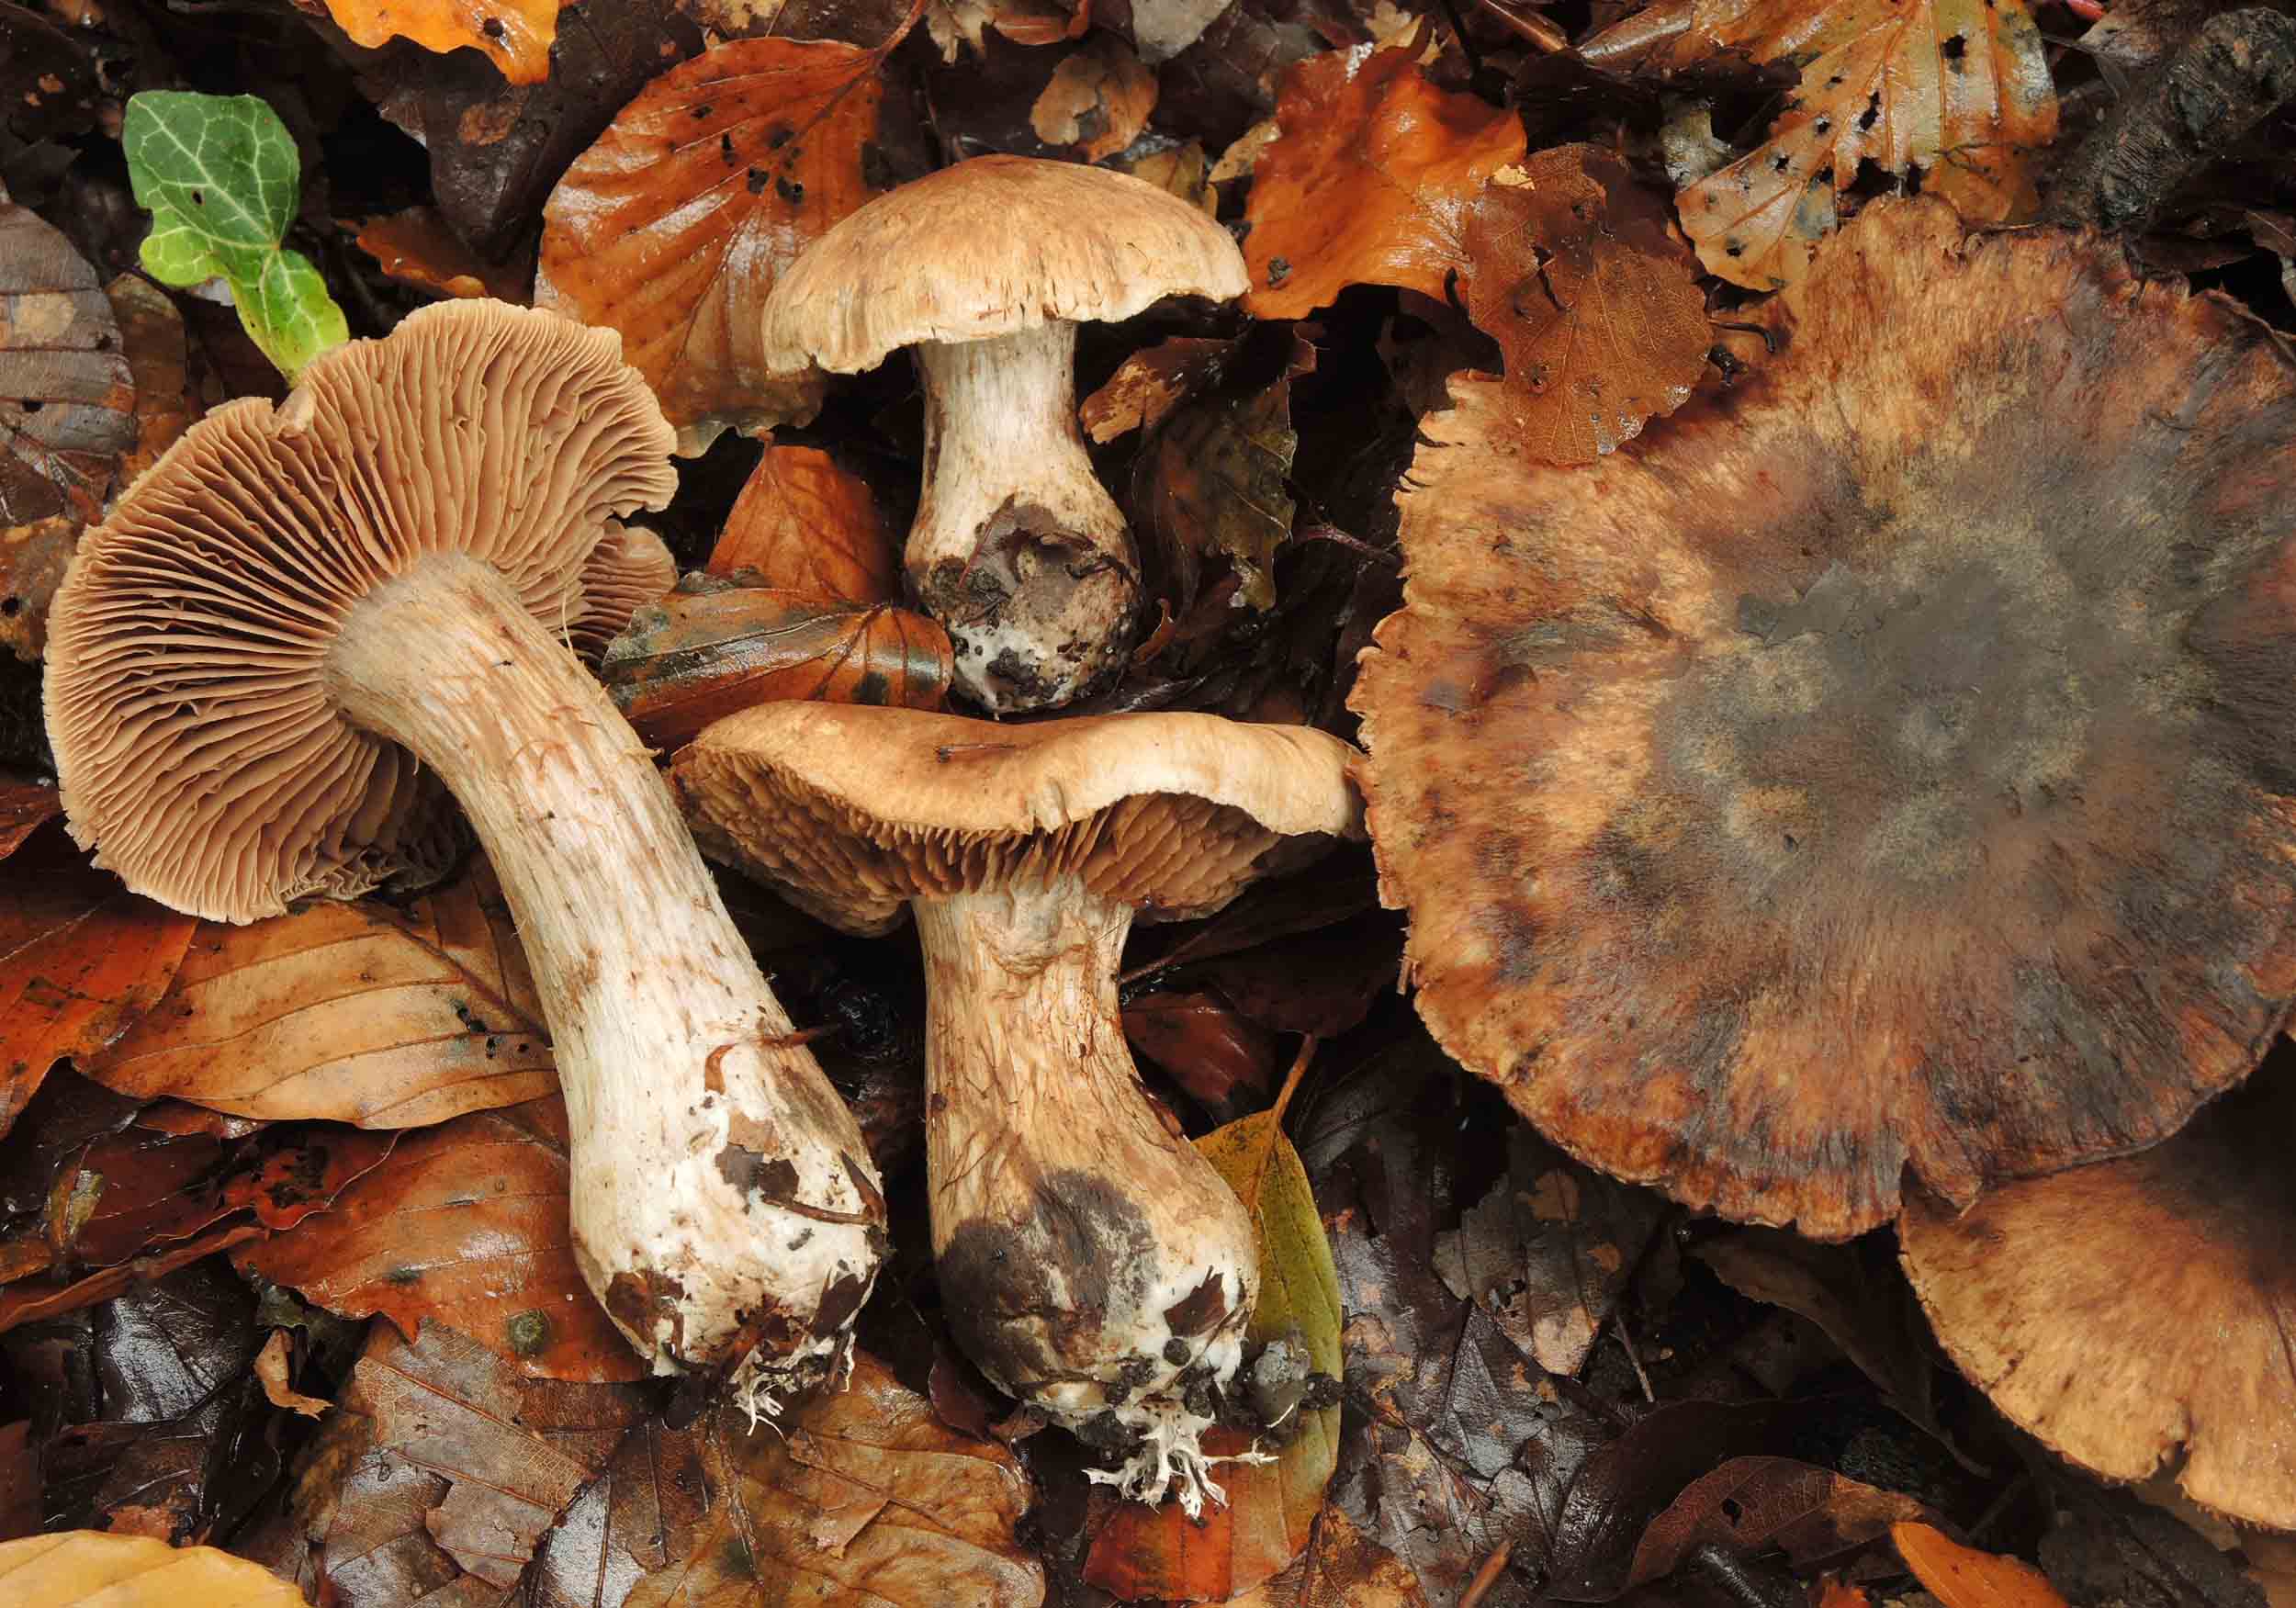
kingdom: Fungi
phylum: Basidiomycota
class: Agaricomycetes
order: Agaricales
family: Cortinariaceae
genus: Cortinarius
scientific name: Cortinarius
